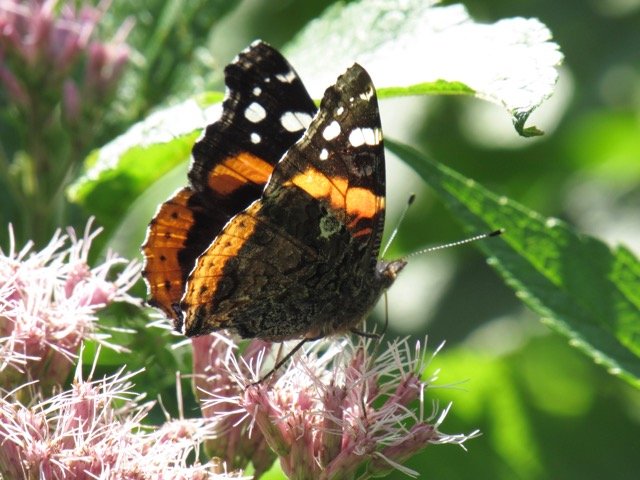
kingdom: Animalia
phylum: Arthropoda
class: Insecta
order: Lepidoptera
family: Nymphalidae
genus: Vanessa
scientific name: Vanessa atalanta
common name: Red Admiral
